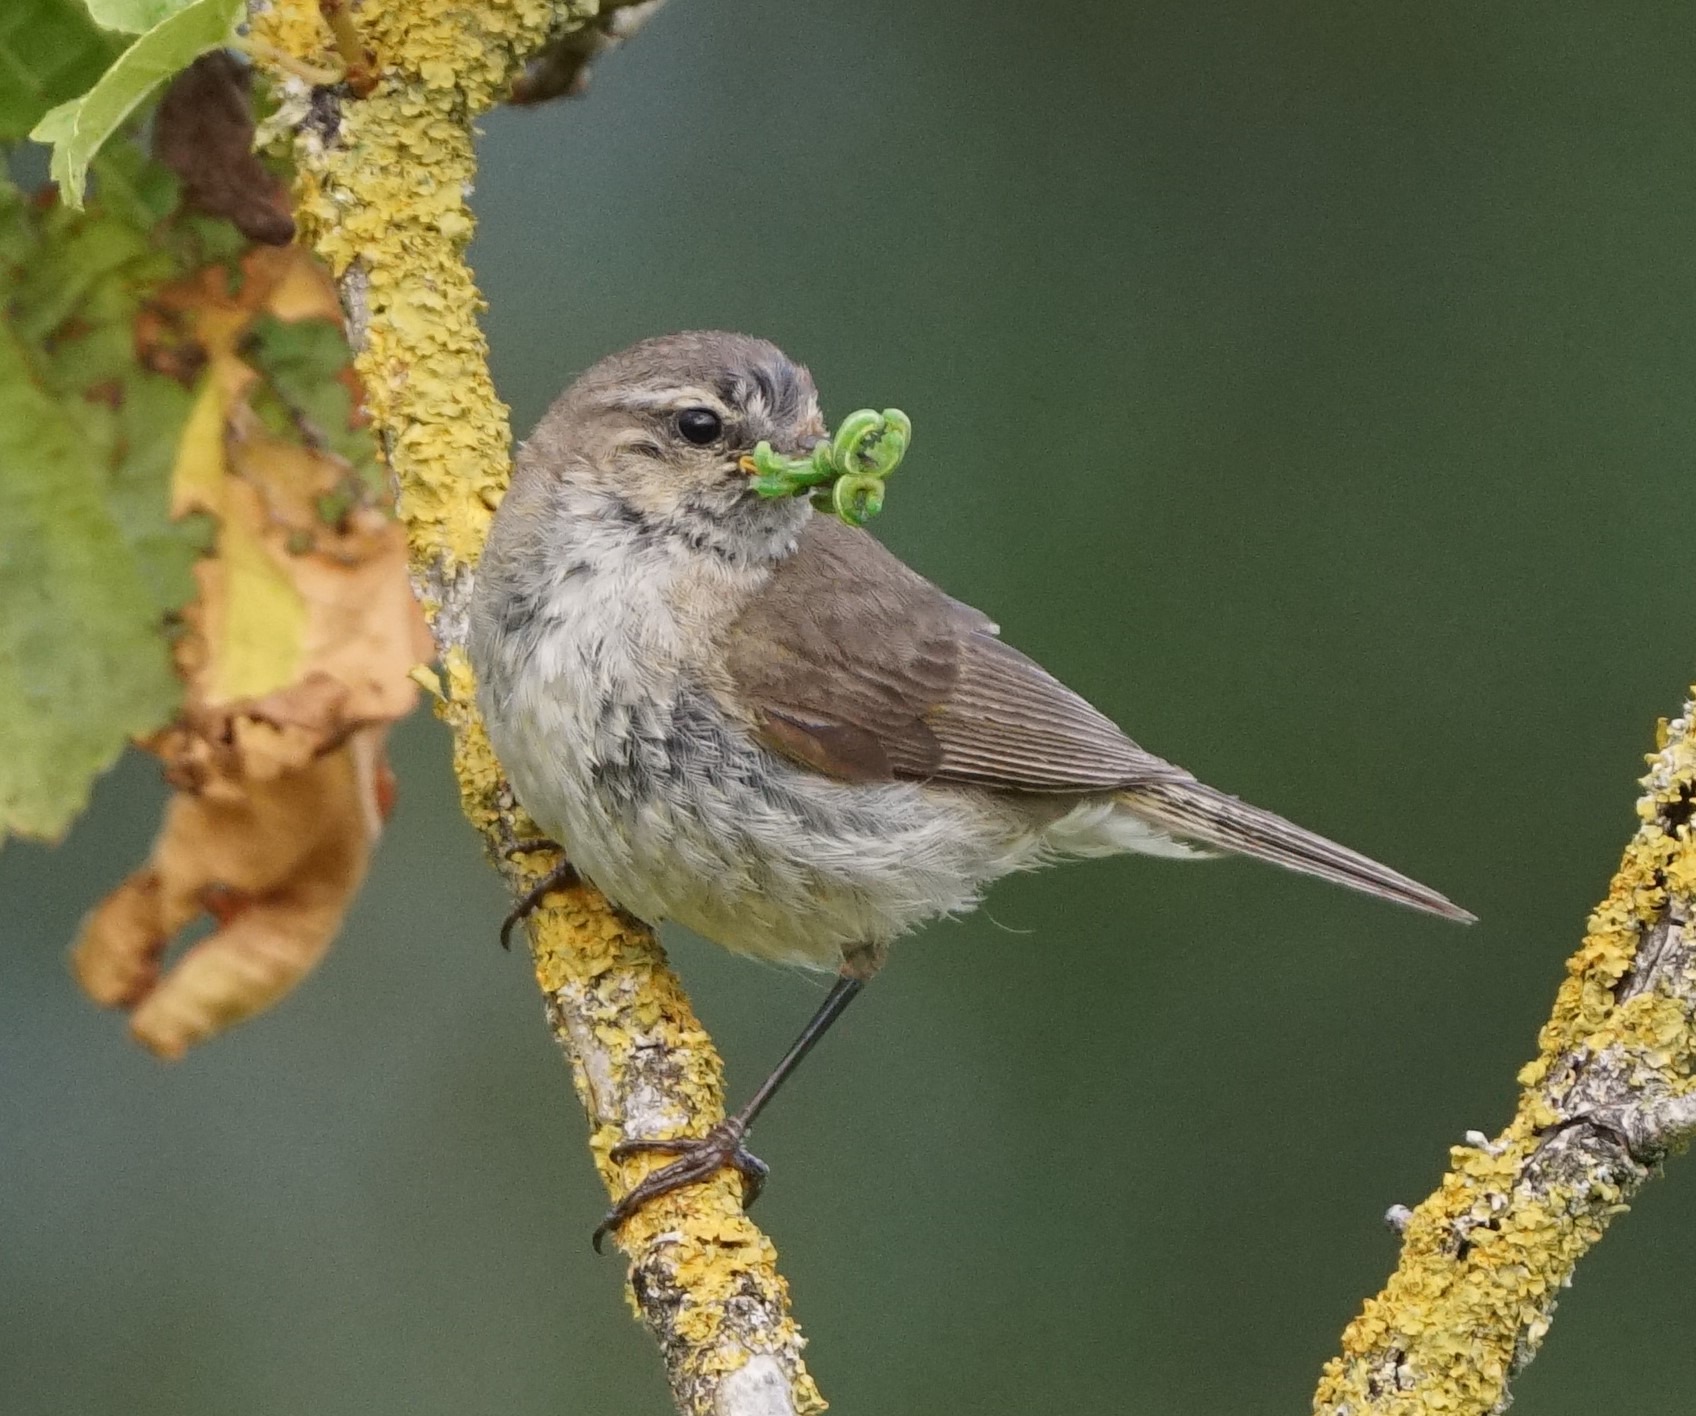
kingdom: Animalia
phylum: Chordata
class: Aves
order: Passeriformes
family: Phylloscopidae
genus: Phylloscopus
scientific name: Phylloscopus collybita
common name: Gransanger
